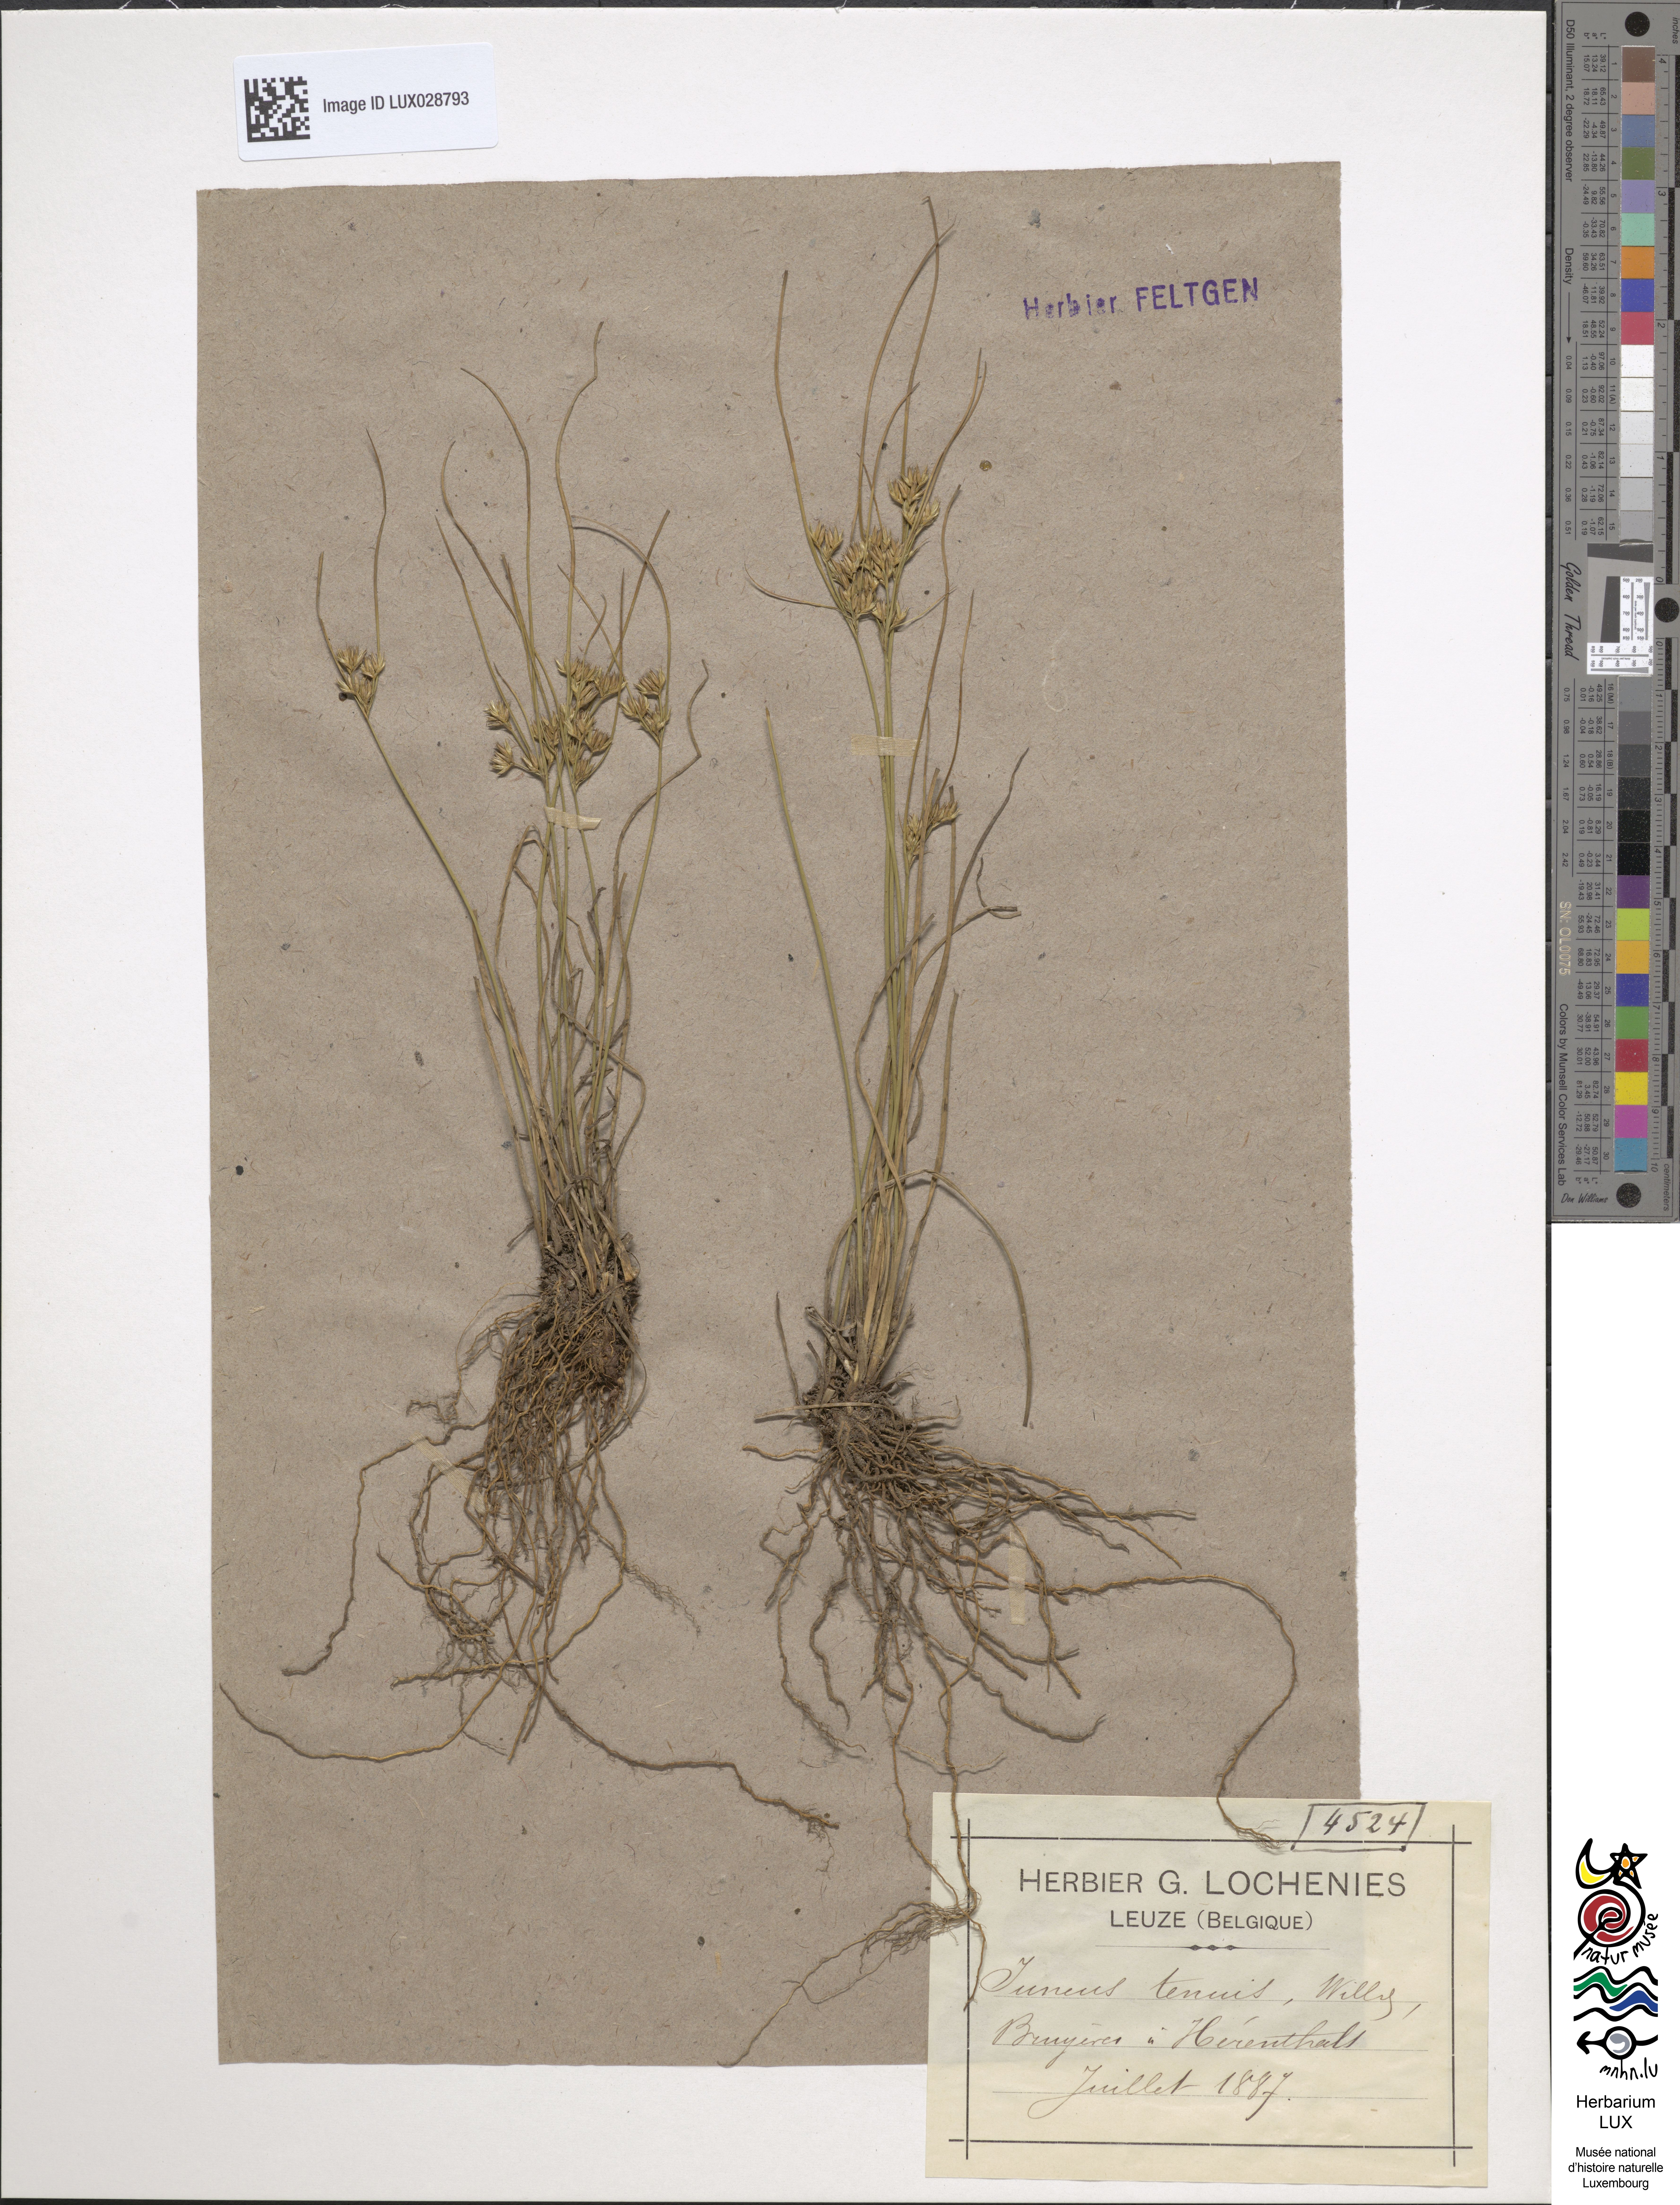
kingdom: Plantae
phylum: Tracheophyta
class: Liliopsida
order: Poales
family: Juncaceae
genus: Juncus
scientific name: Juncus tenuis
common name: Slender rush
